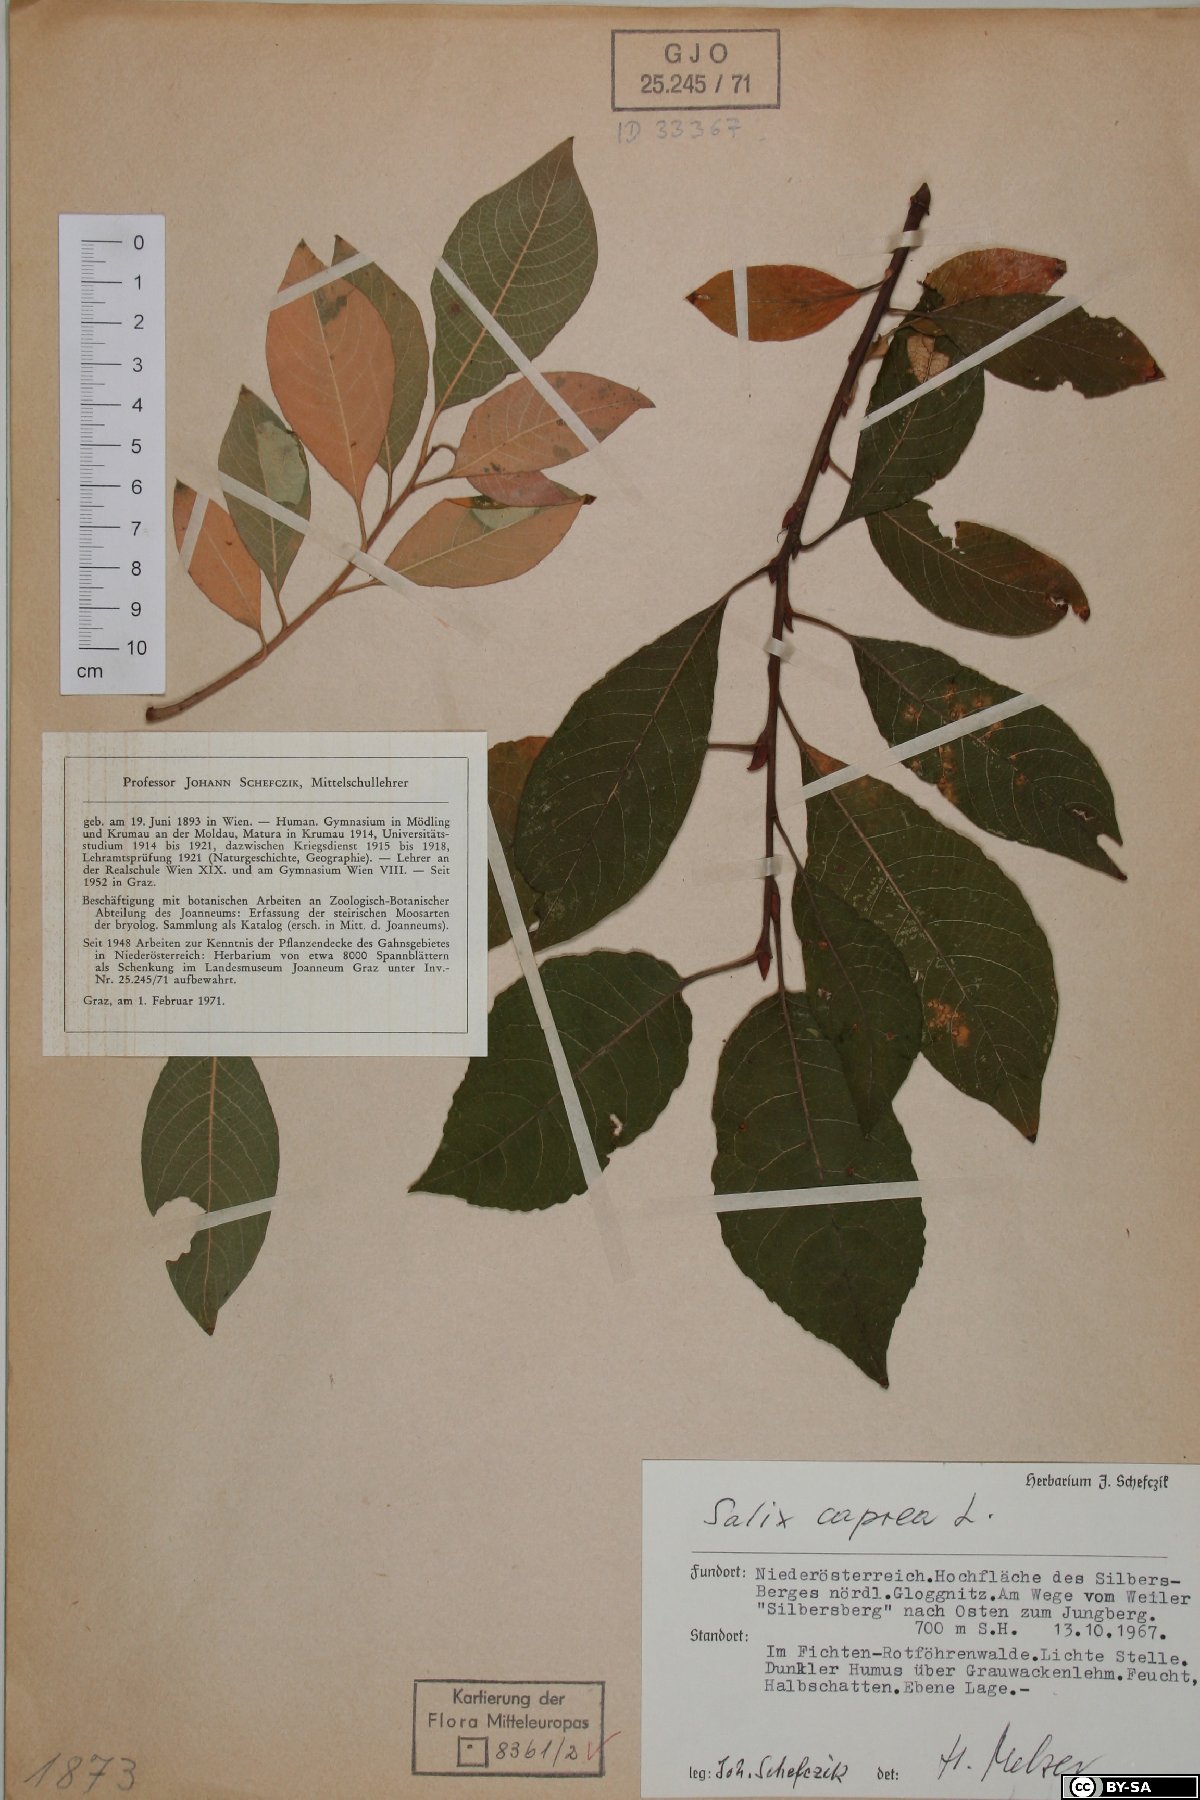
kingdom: Plantae
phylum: Tracheophyta
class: Magnoliopsida
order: Malpighiales
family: Salicaceae
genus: Salix
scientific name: Salix caprea
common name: Goat willow
